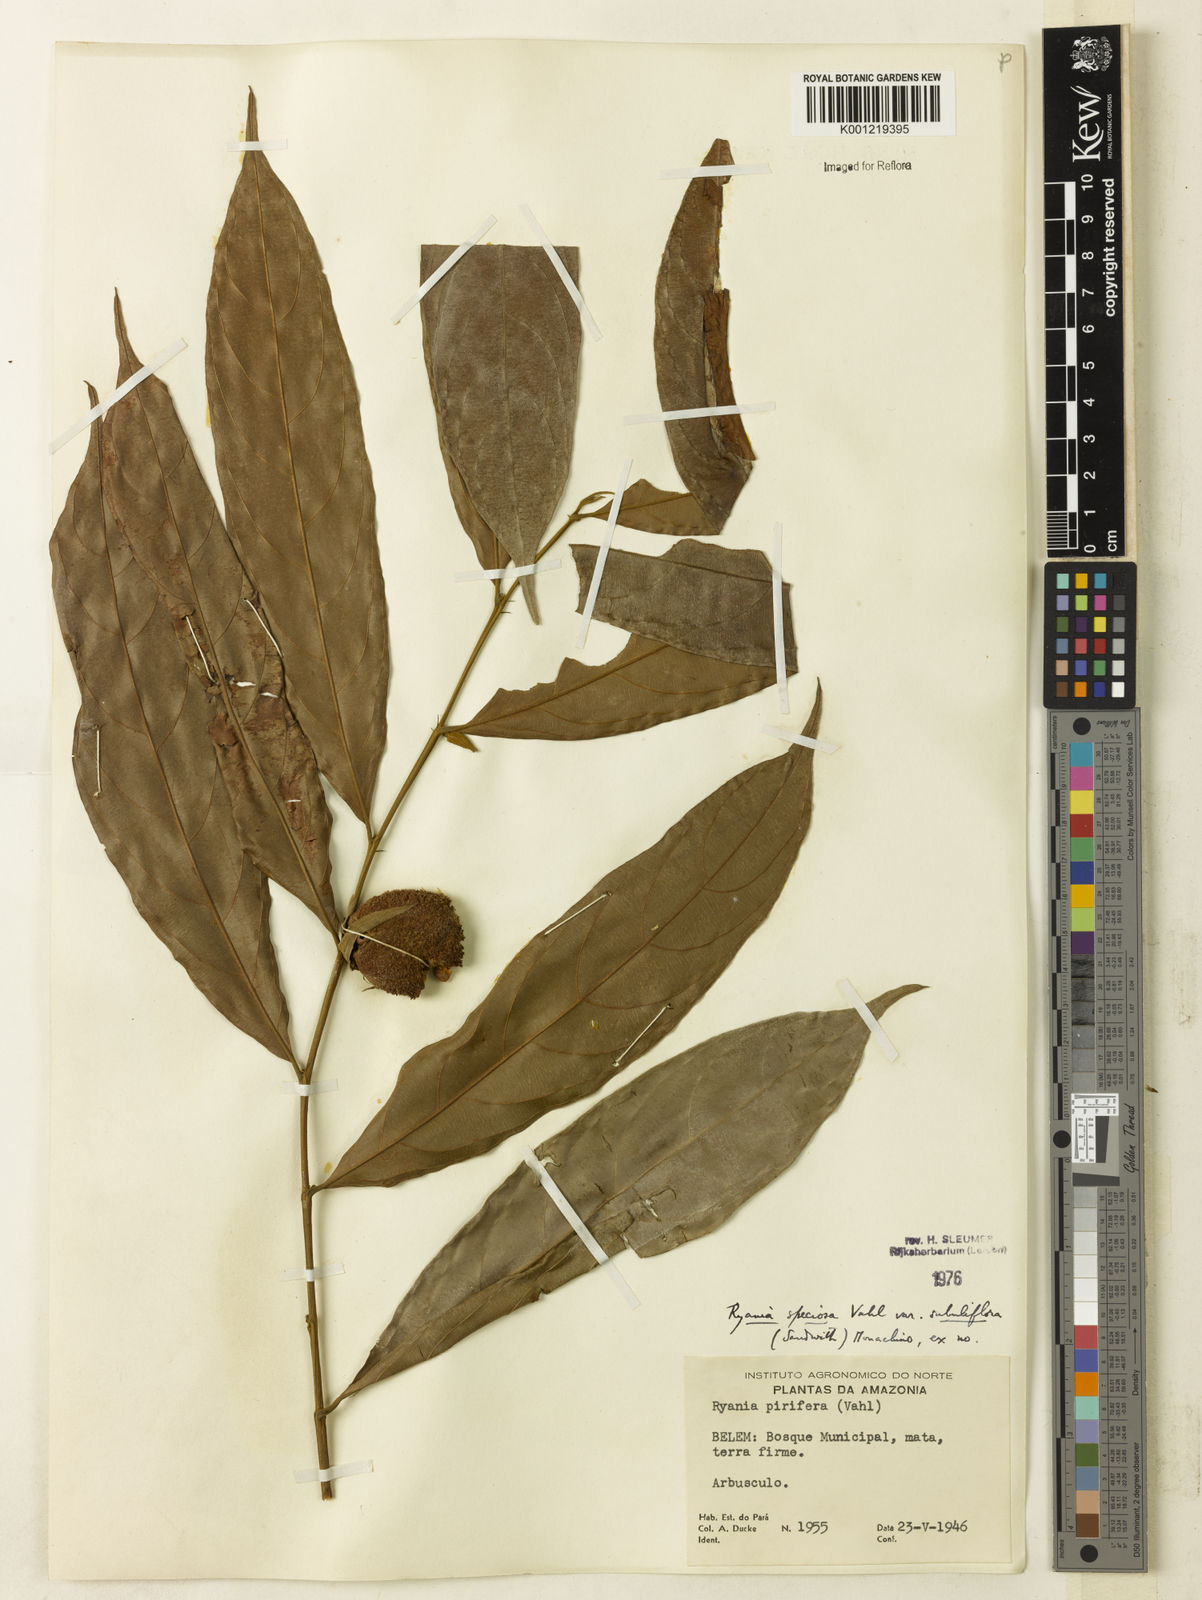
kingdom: Plantae
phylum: Tracheophyta
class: Magnoliopsida
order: Malpighiales
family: Salicaceae
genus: Ryania
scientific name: Ryania speciosa
